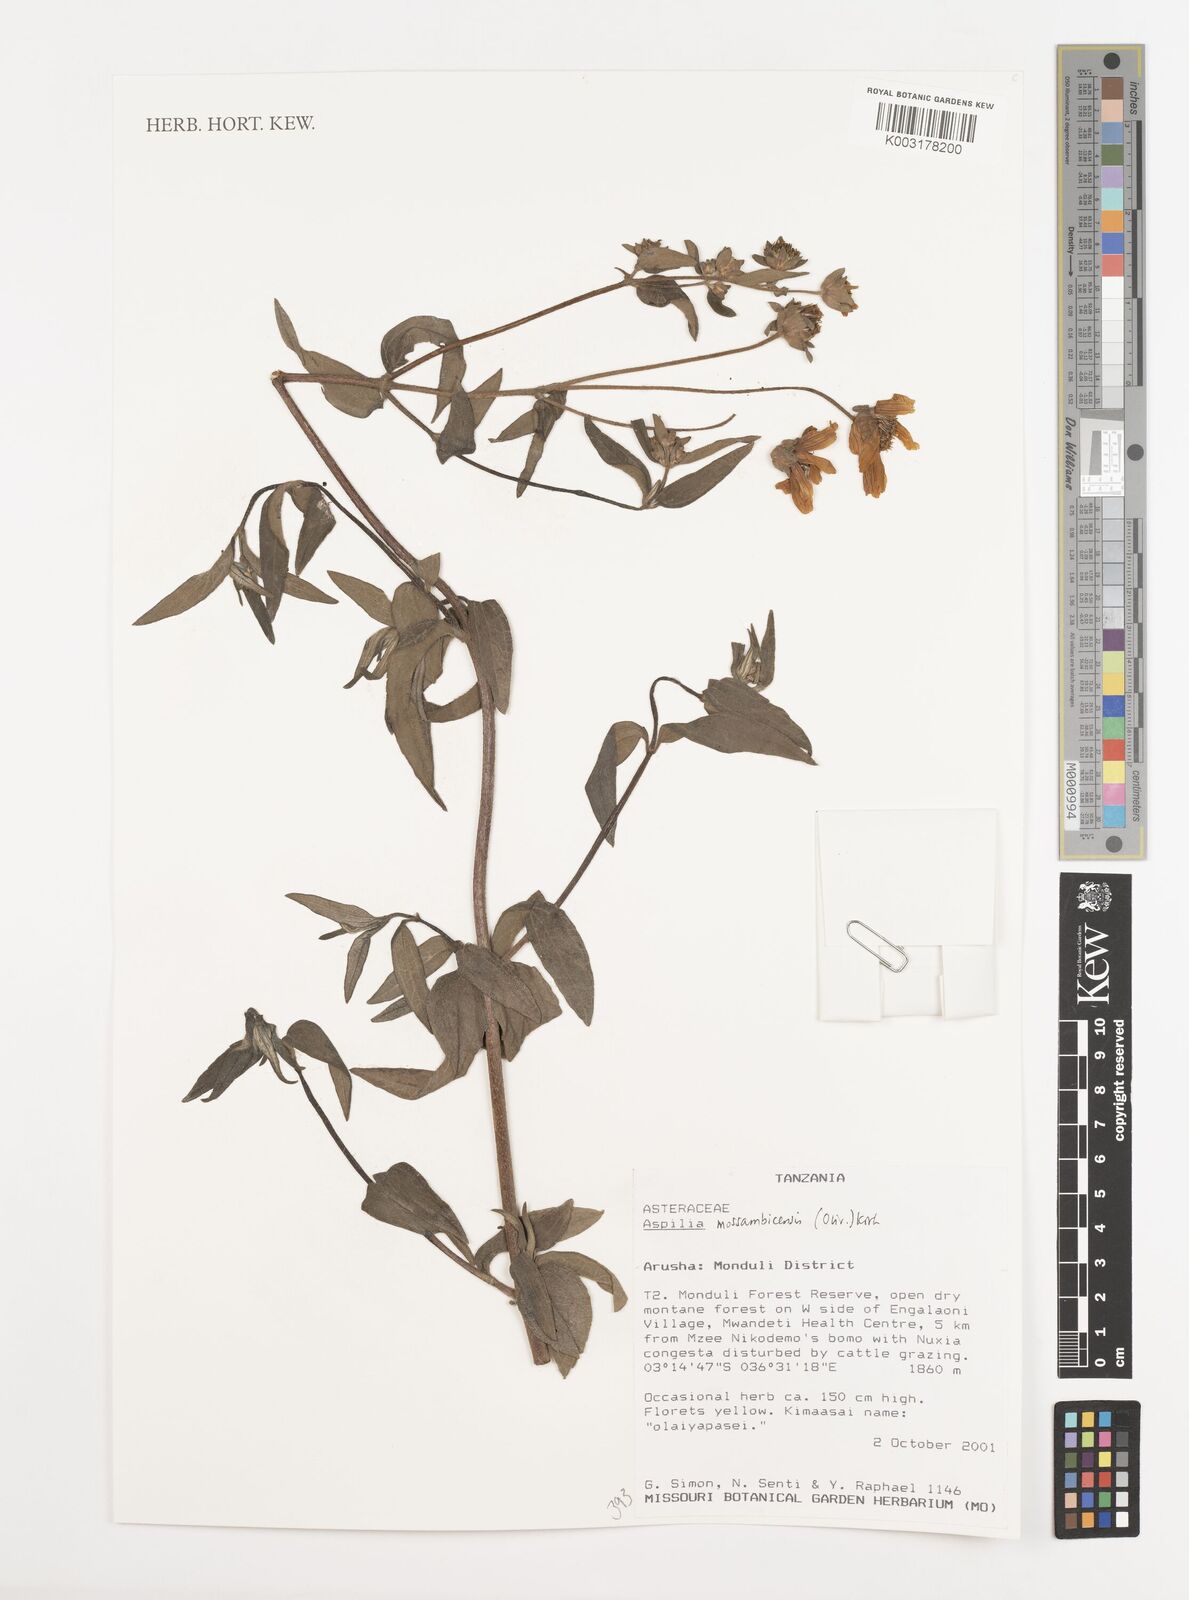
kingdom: Plantae
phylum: Tracheophyta
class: Magnoliopsida
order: Asterales
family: Asteraceae
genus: Aspilia
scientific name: Aspilia mossambicensis
